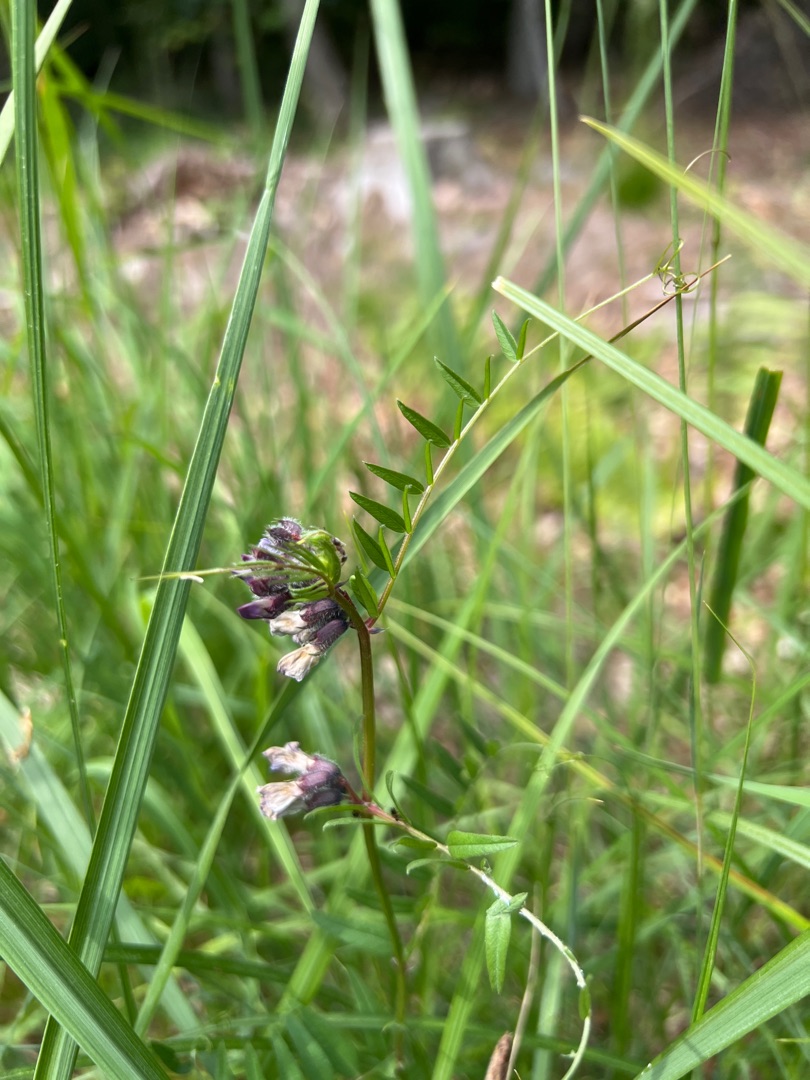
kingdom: Plantae
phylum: Tracheophyta
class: Magnoliopsida
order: Fabales
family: Fabaceae
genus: Vicia
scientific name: Vicia sepium
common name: Gærde-vikke
